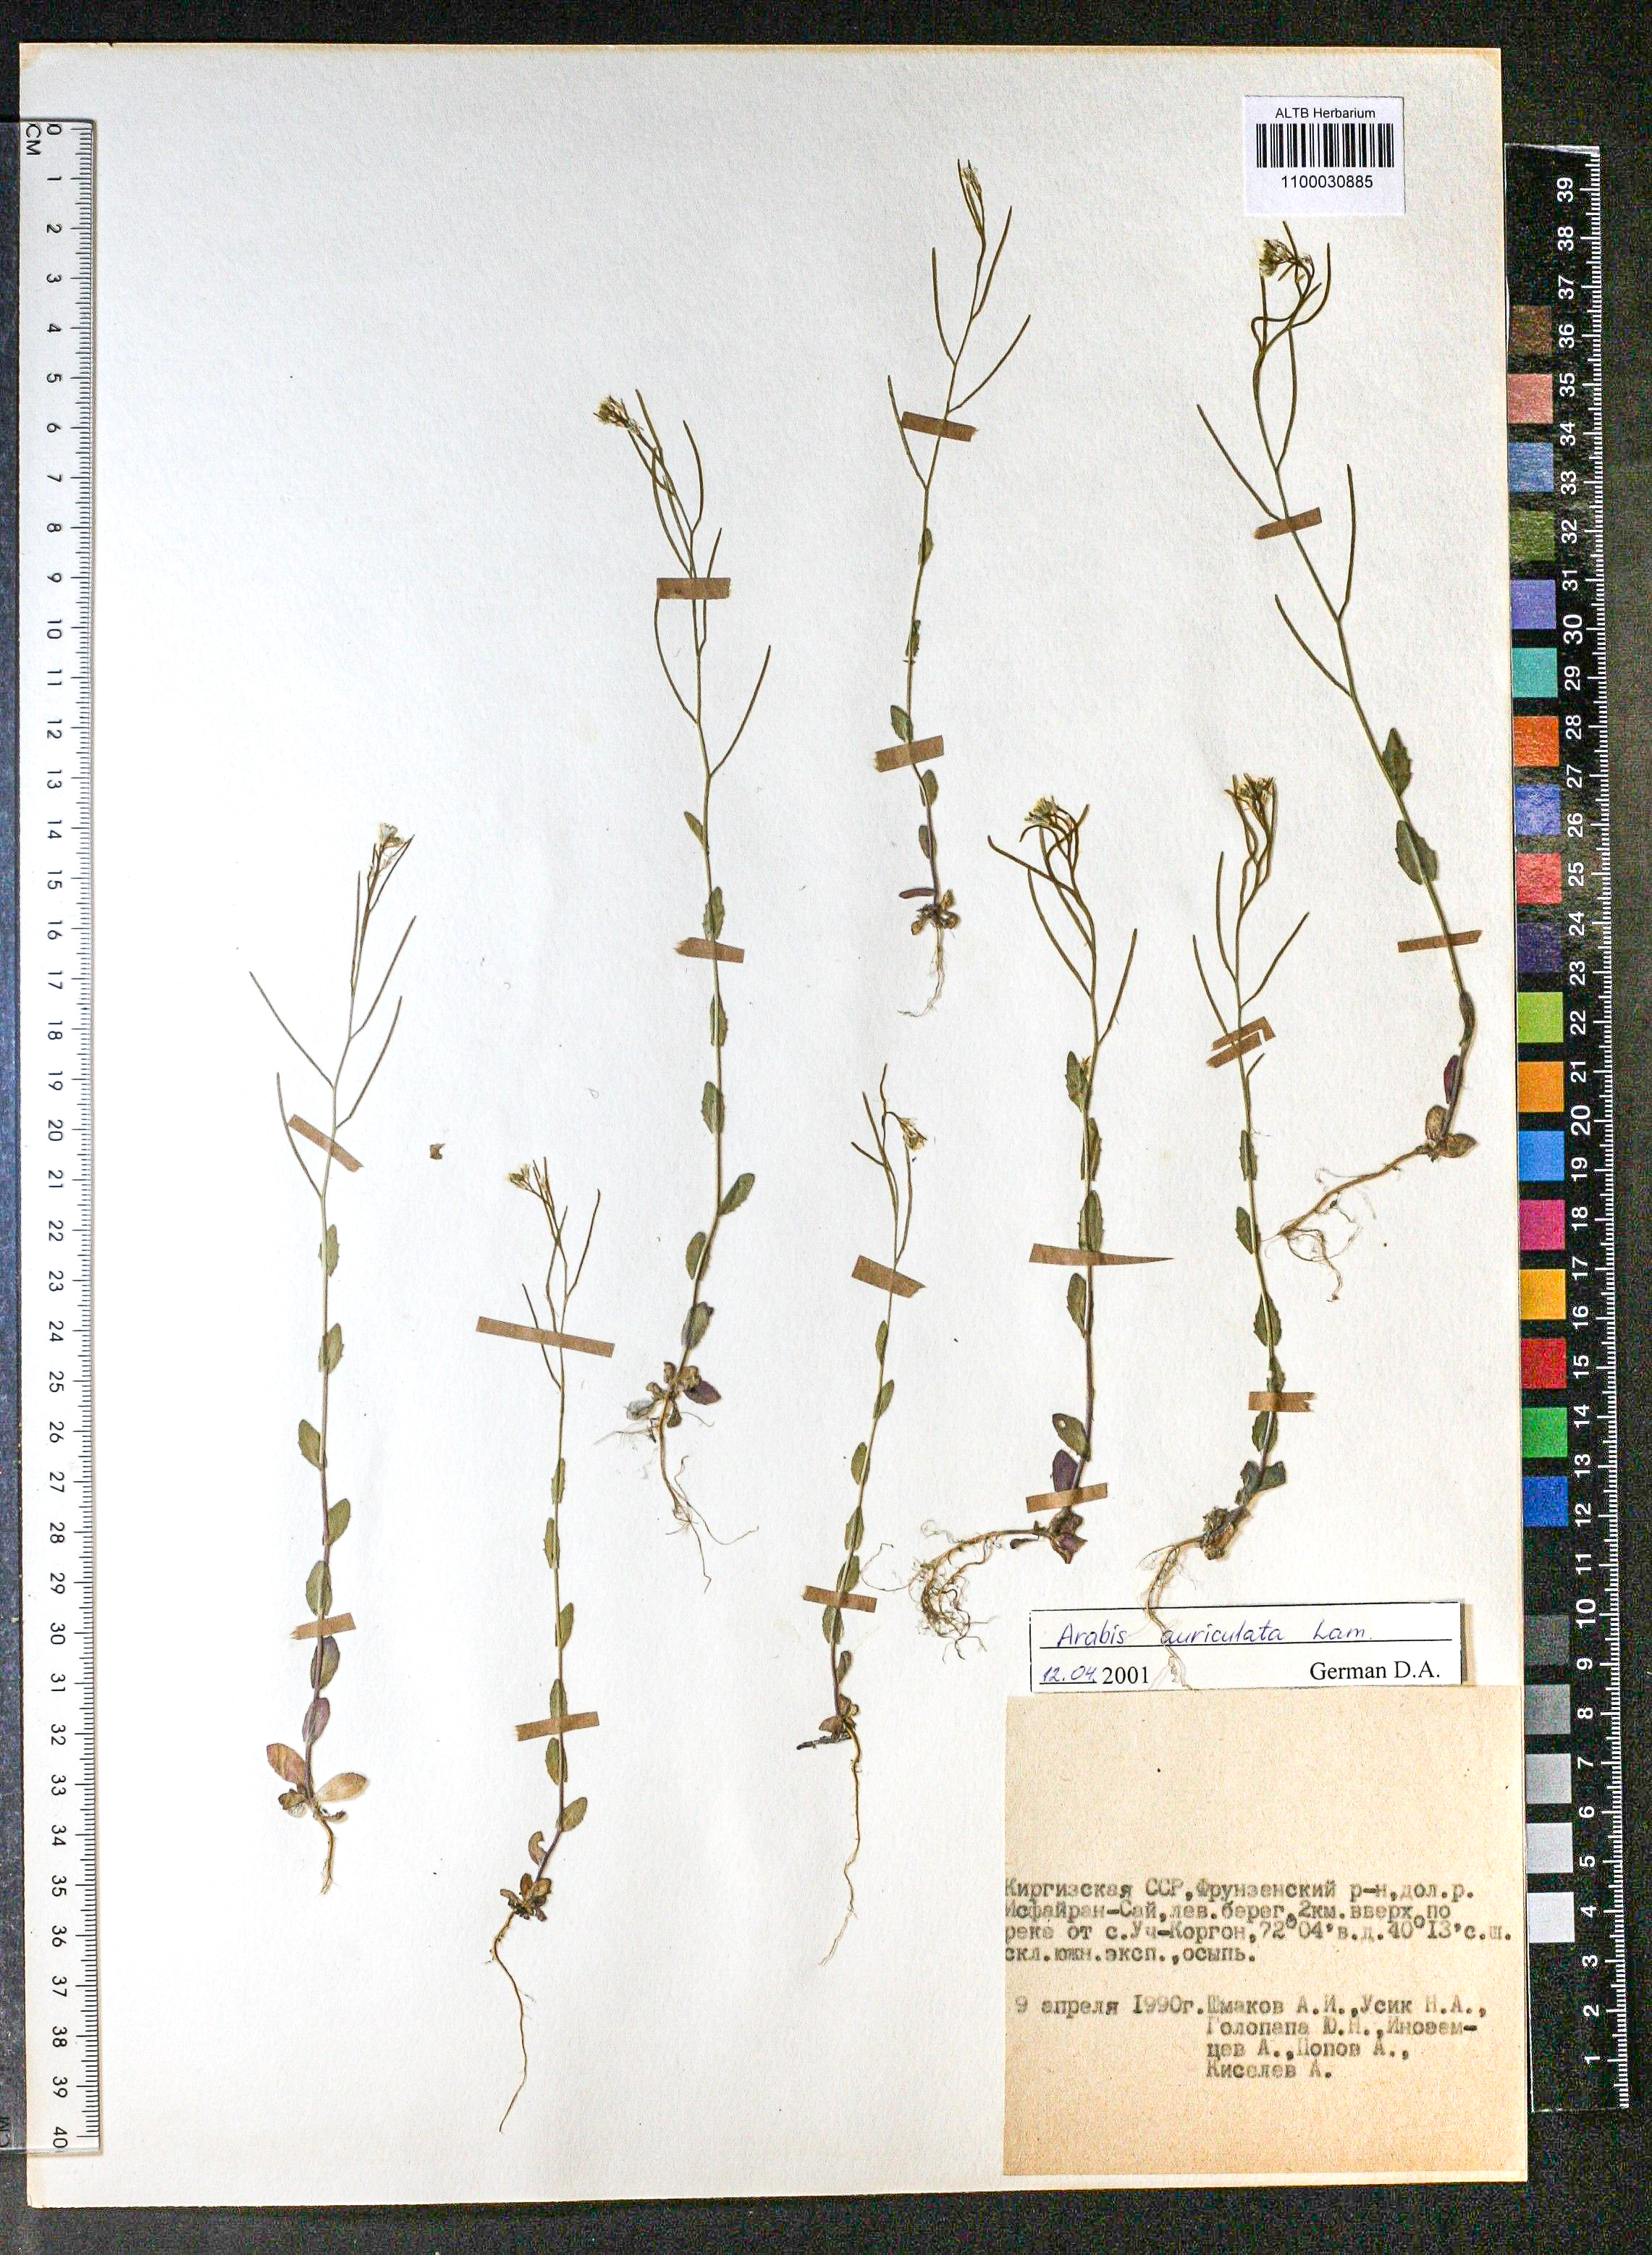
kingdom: Plantae
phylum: Tracheophyta
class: Magnoliopsida
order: Brassicales
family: Brassicaceae
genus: Arabis
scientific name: Arabis auriculata
